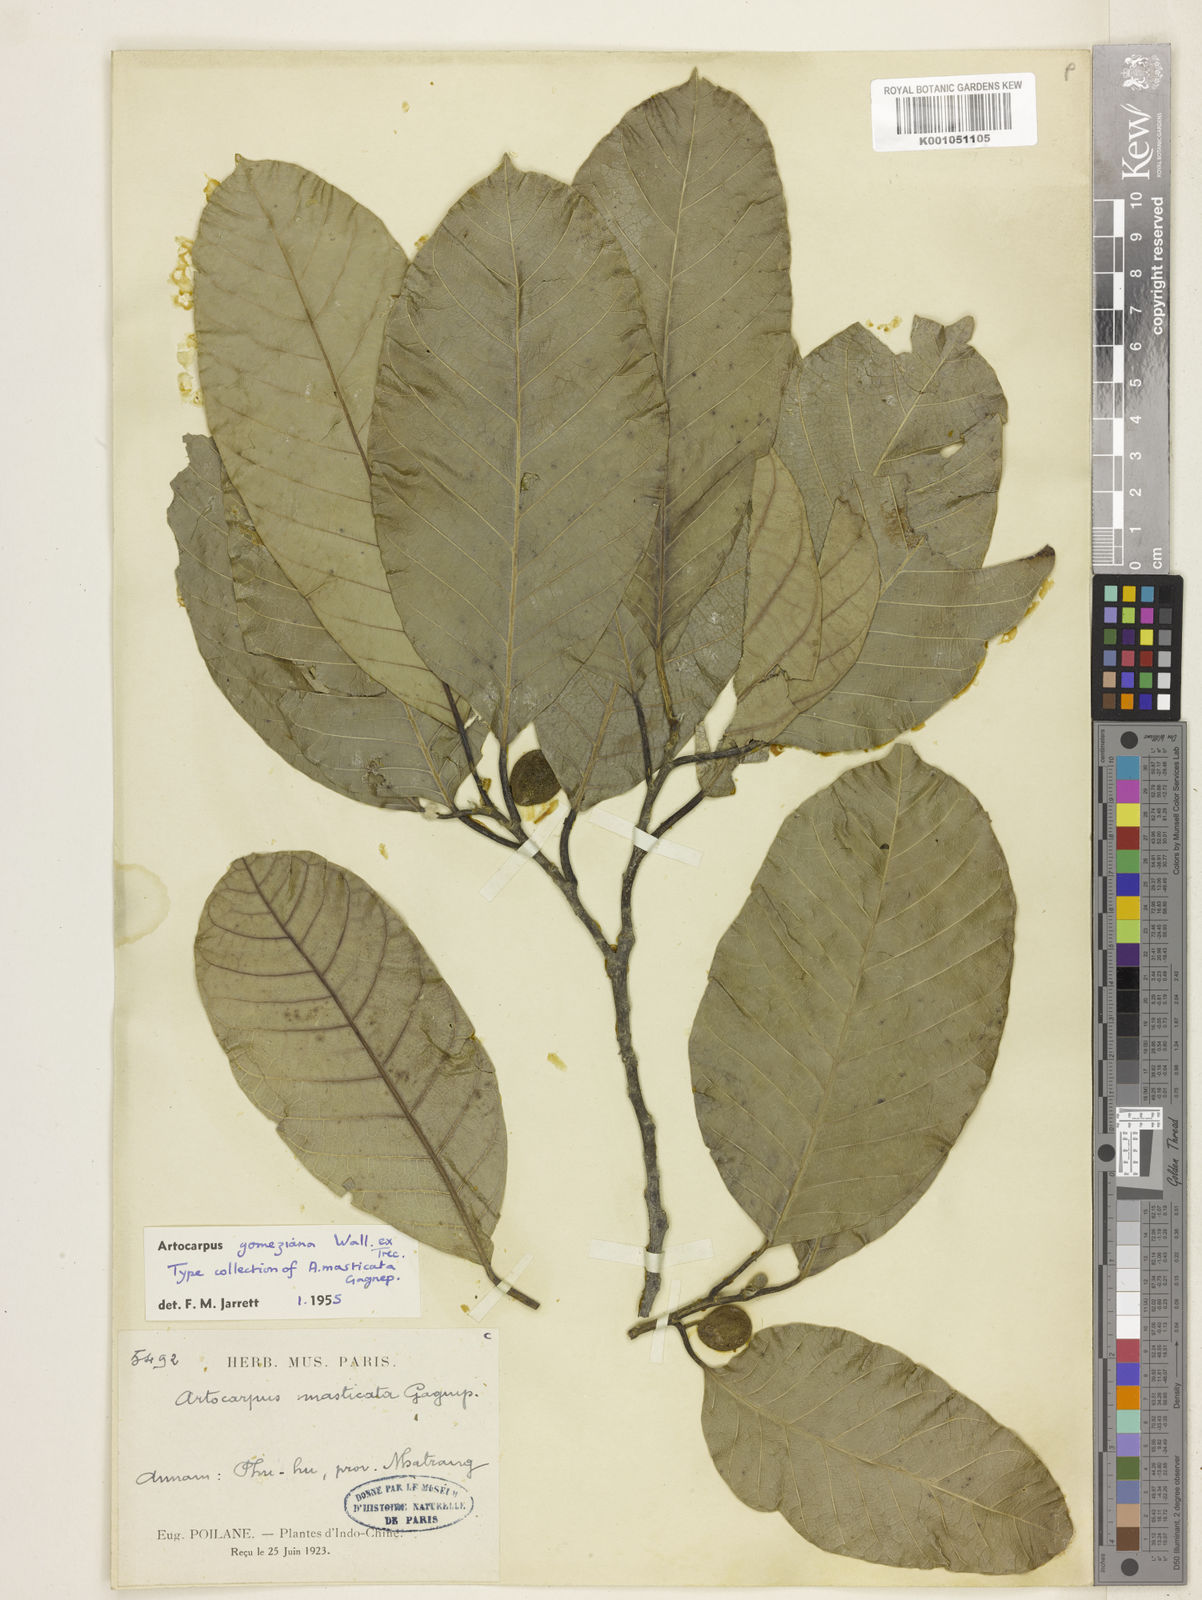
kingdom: Plantae
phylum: Tracheophyta
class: Magnoliopsida
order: Rosales
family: Moraceae
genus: Artocarpus
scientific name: Artocarpus
